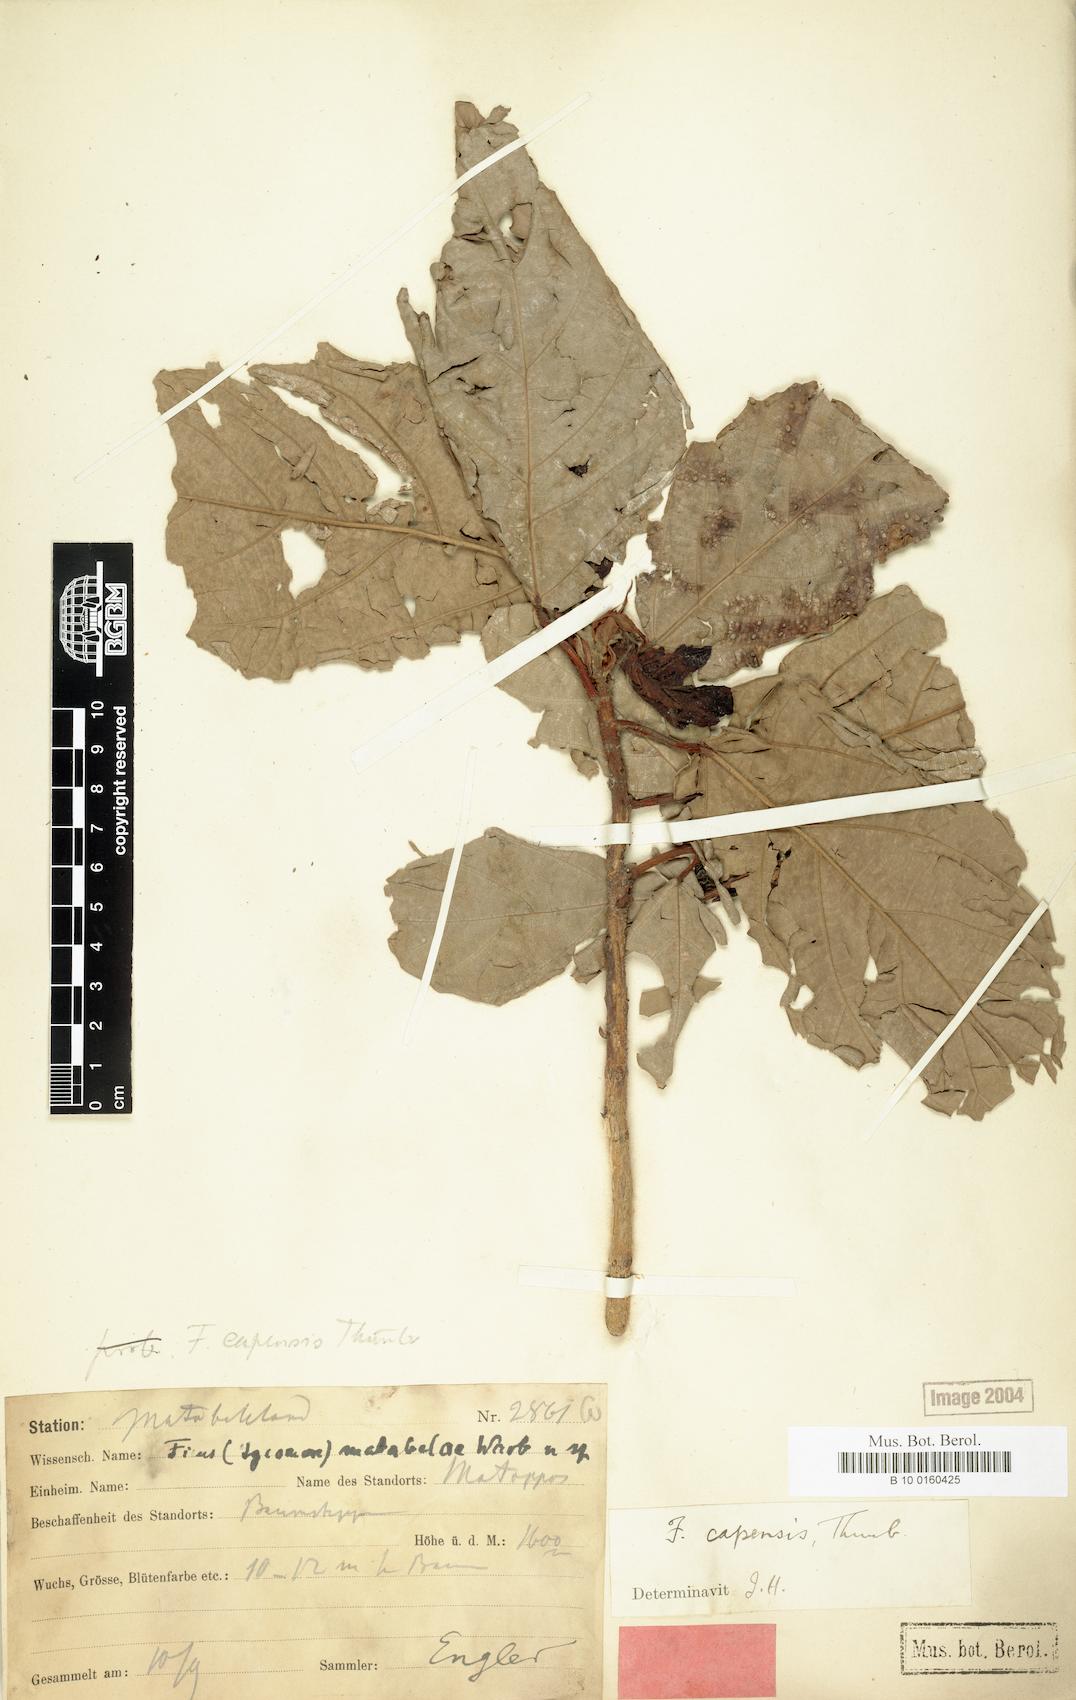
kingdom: Plantae
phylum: Tracheophyta
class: Magnoliopsida
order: Rosales
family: Moraceae
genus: Ficus
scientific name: Ficus sur
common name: Cape fig
